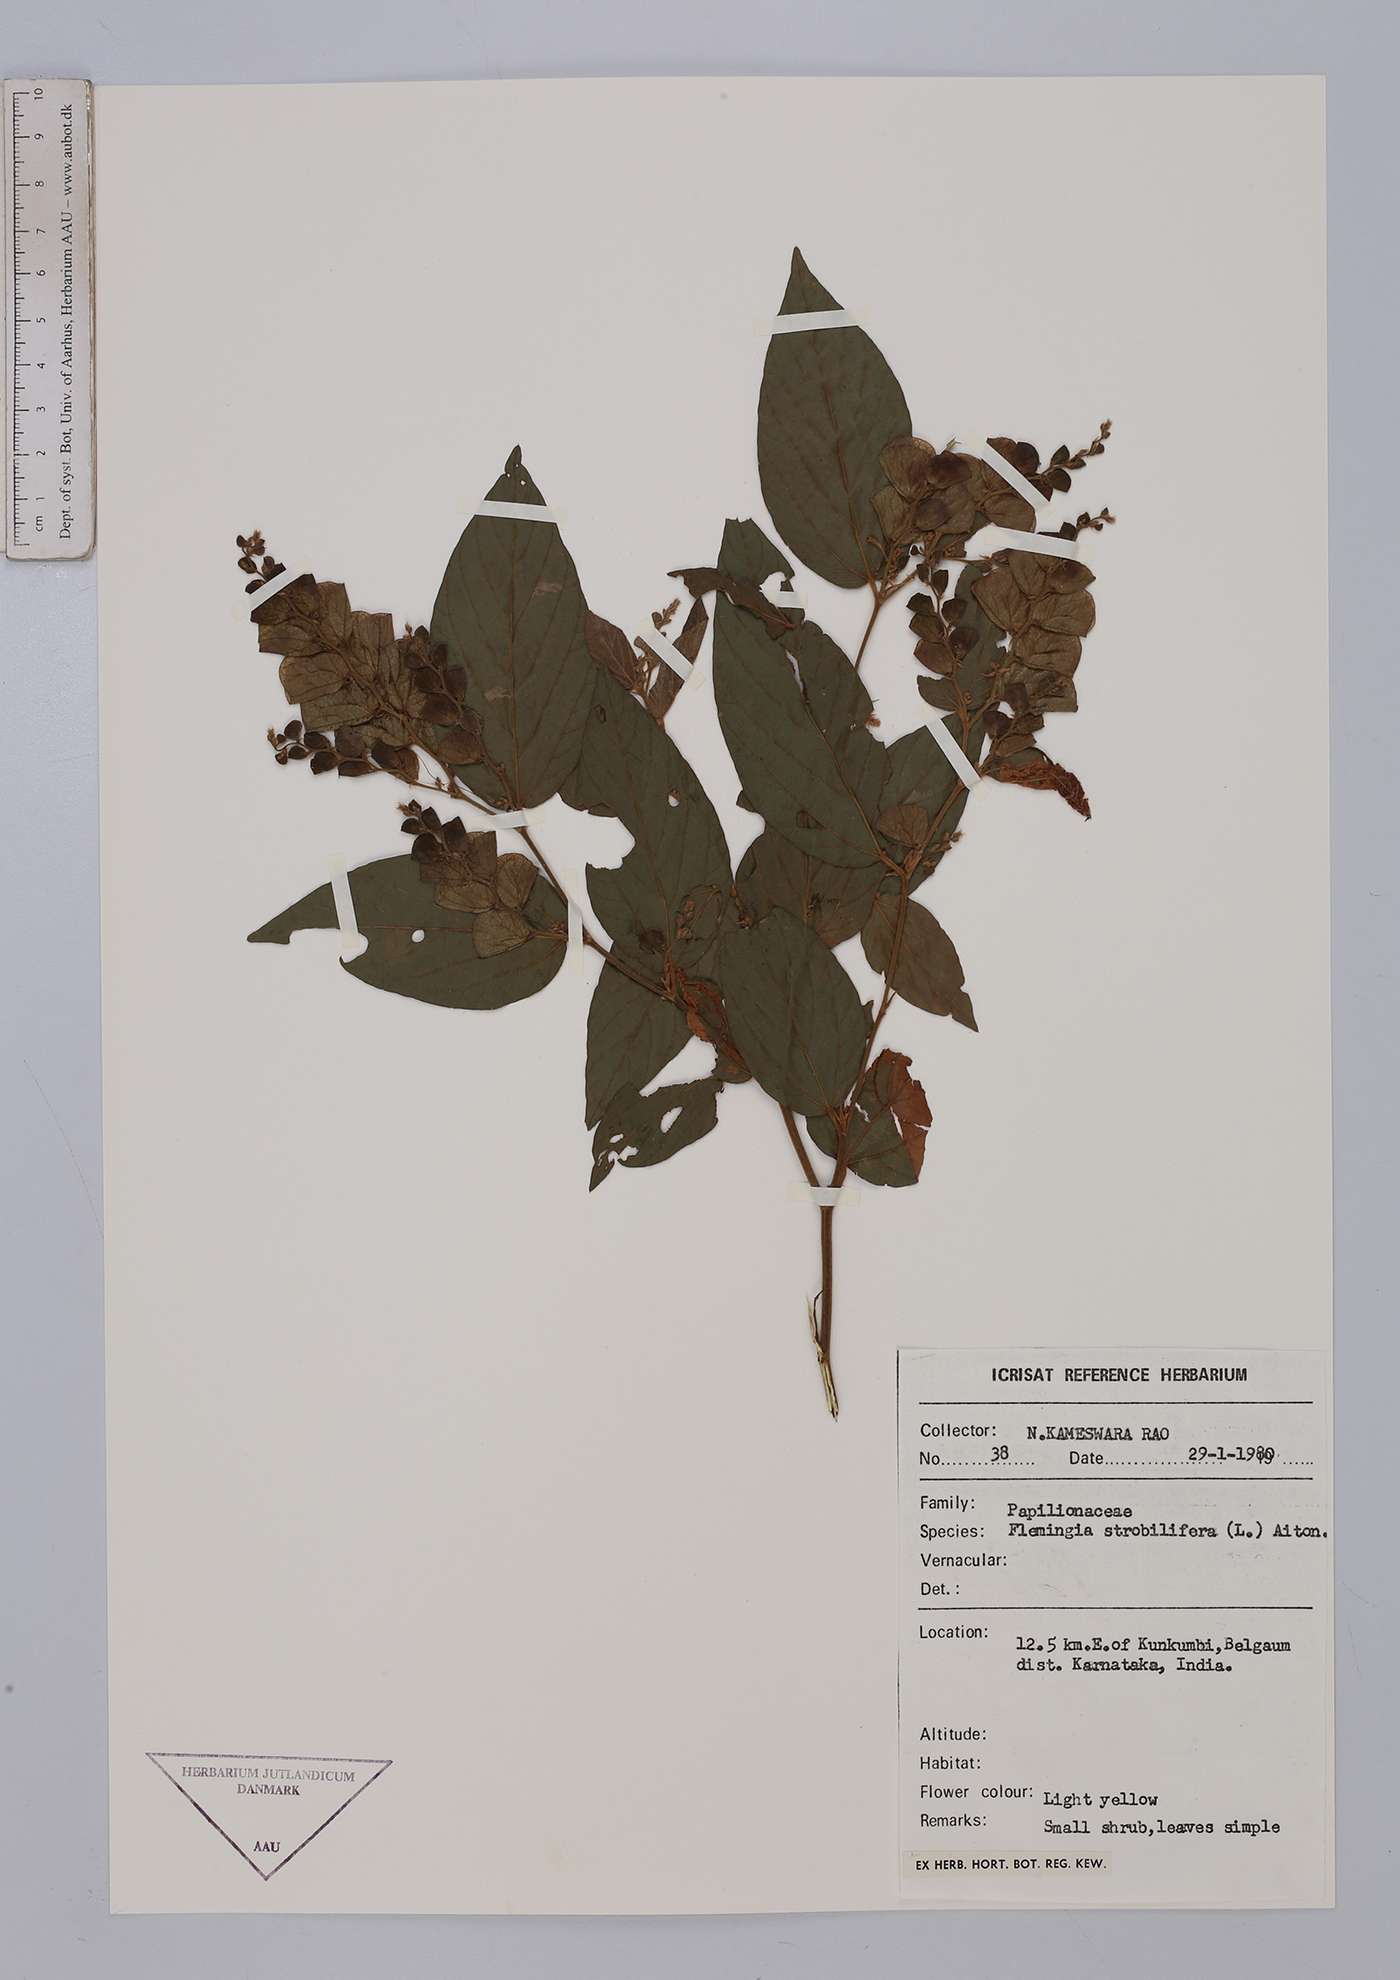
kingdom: Plantae
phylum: Tracheophyta
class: Magnoliopsida
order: Fabales
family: Fabaceae
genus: Flemingia
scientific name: Flemingia strobilifera
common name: Wild hops
